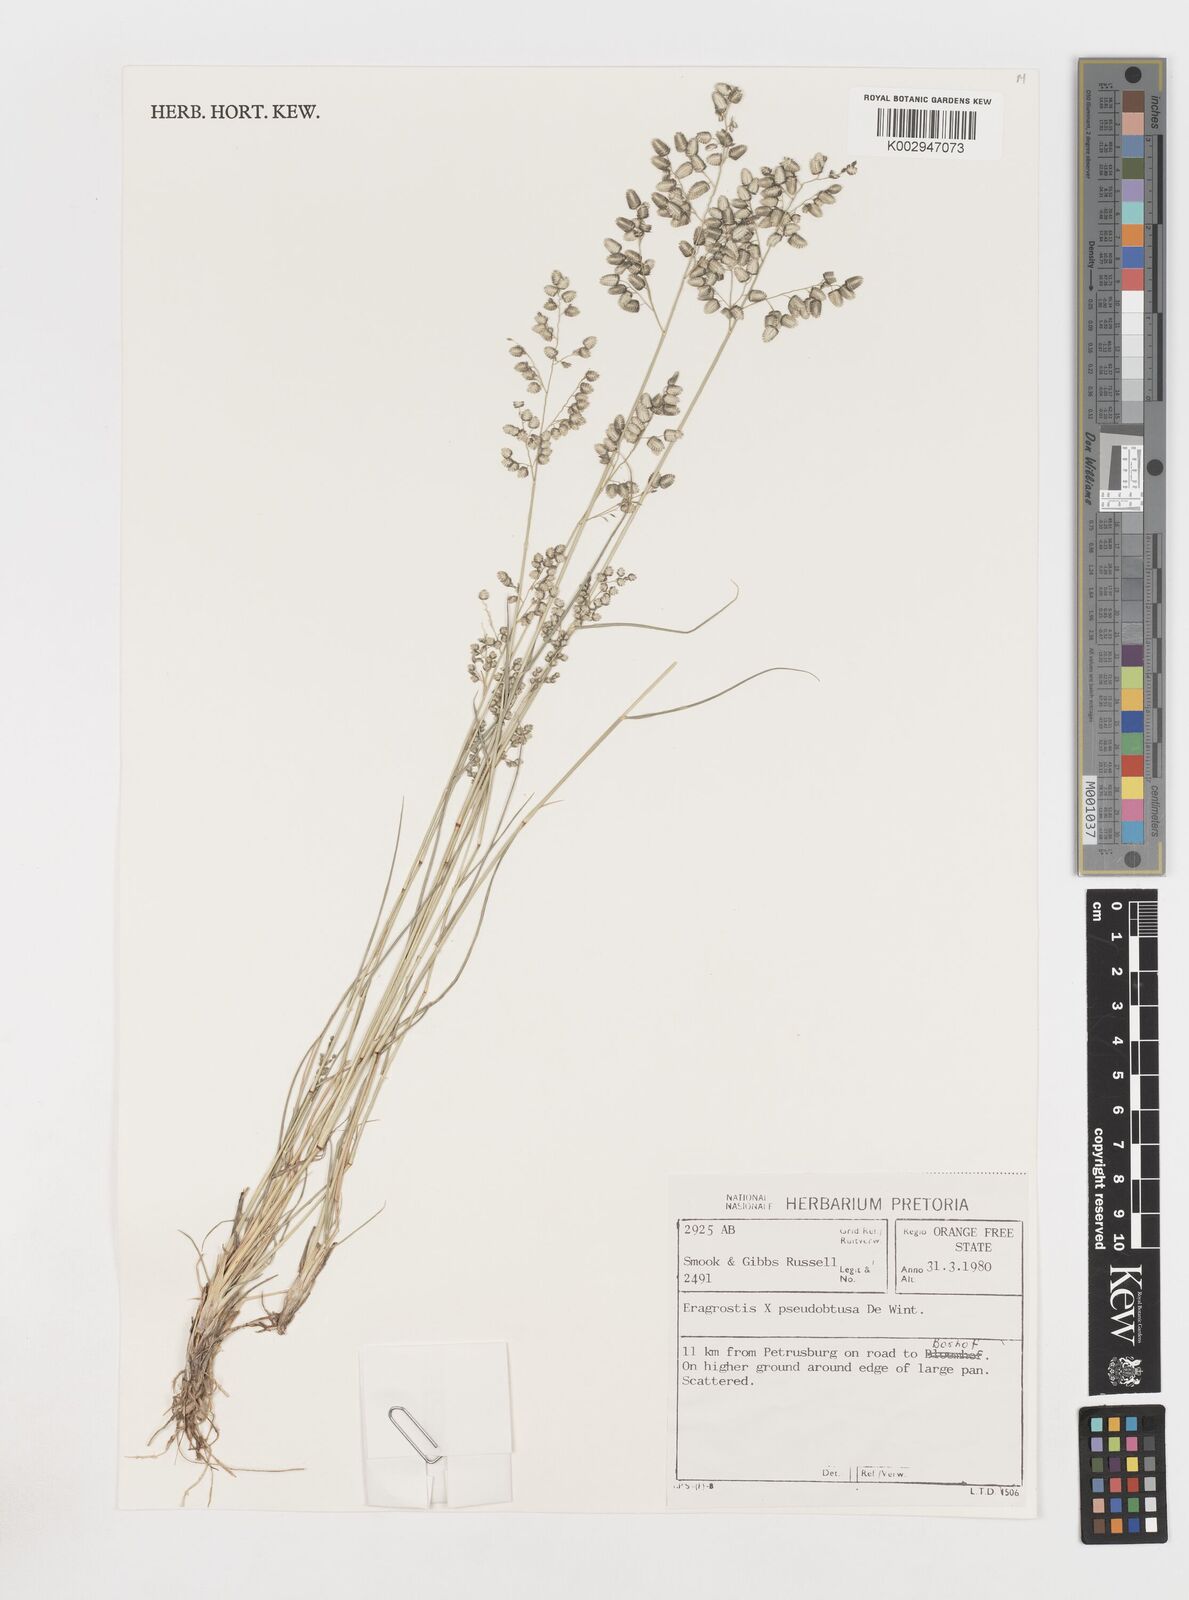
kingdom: Plantae
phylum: Tracheophyta
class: Liliopsida
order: Poales
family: Poaceae
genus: Eragrostis
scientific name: Eragrostis pseudobtusa
